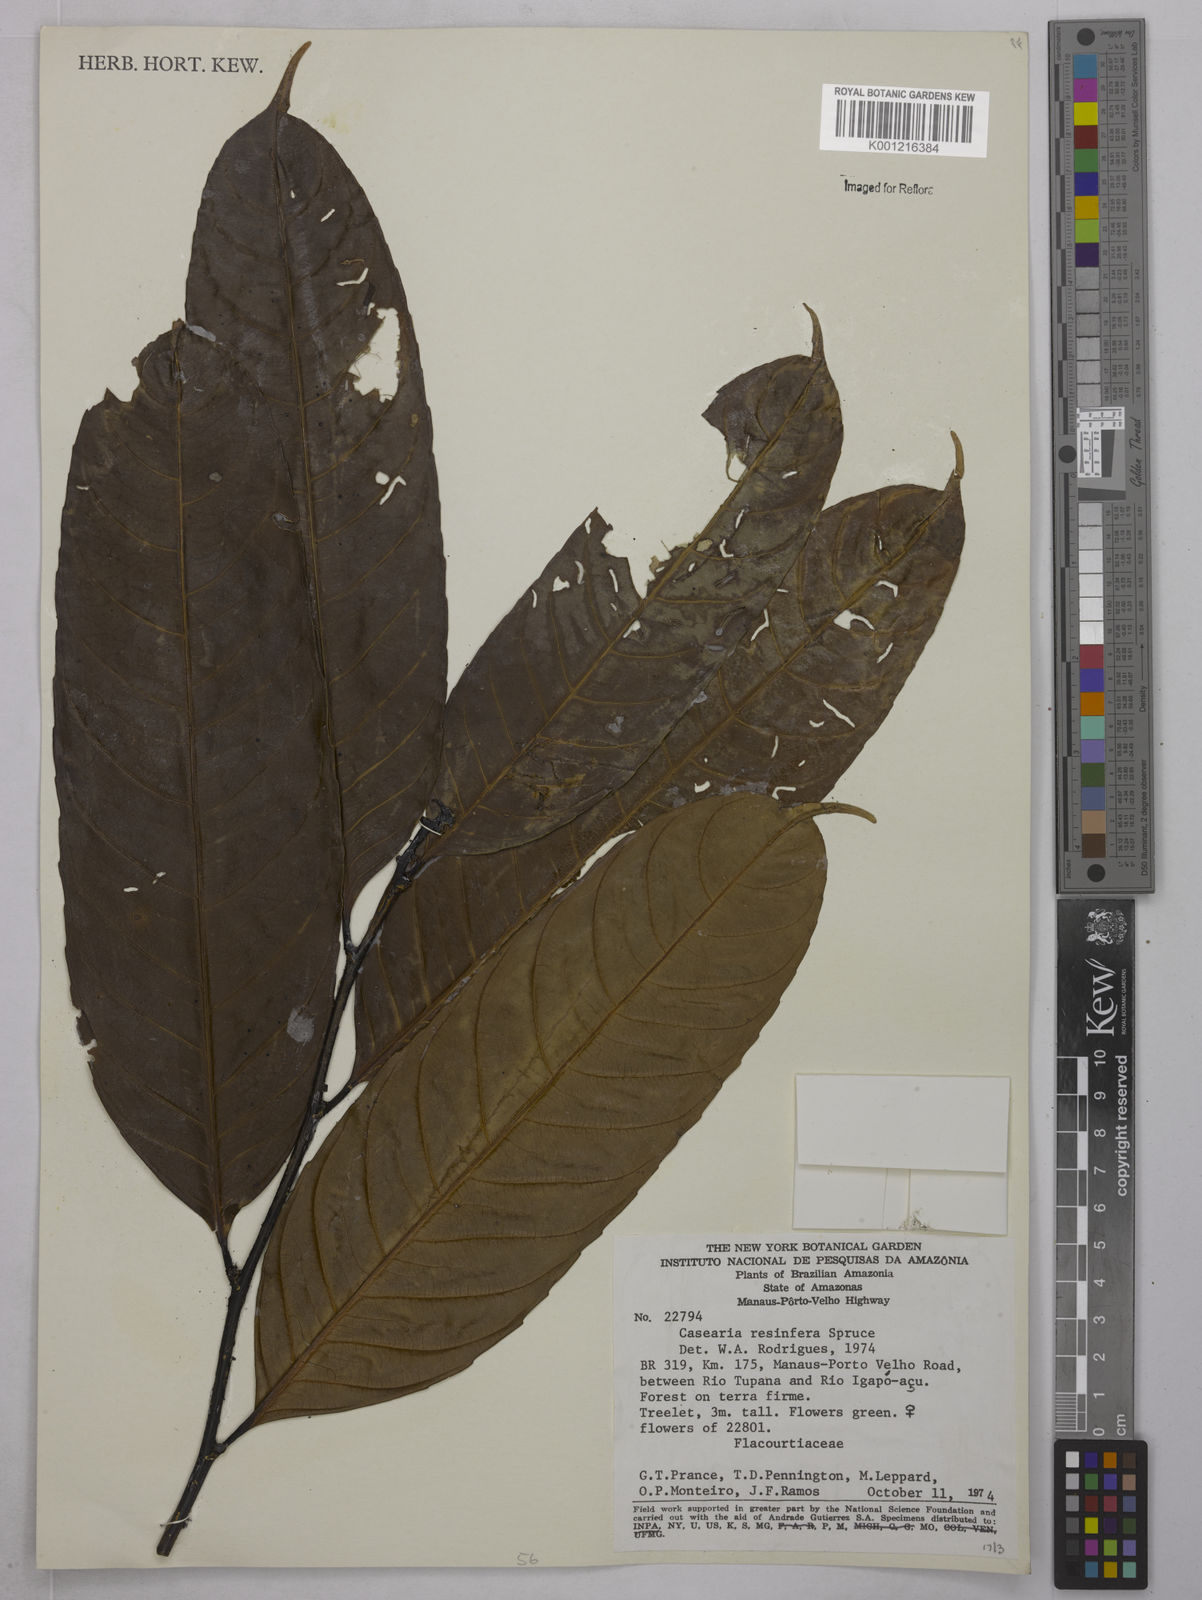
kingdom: Plantae
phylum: Tracheophyta
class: Magnoliopsida
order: Malpighiales
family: Salicaceae
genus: Casearia
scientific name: Casearia resinifera
